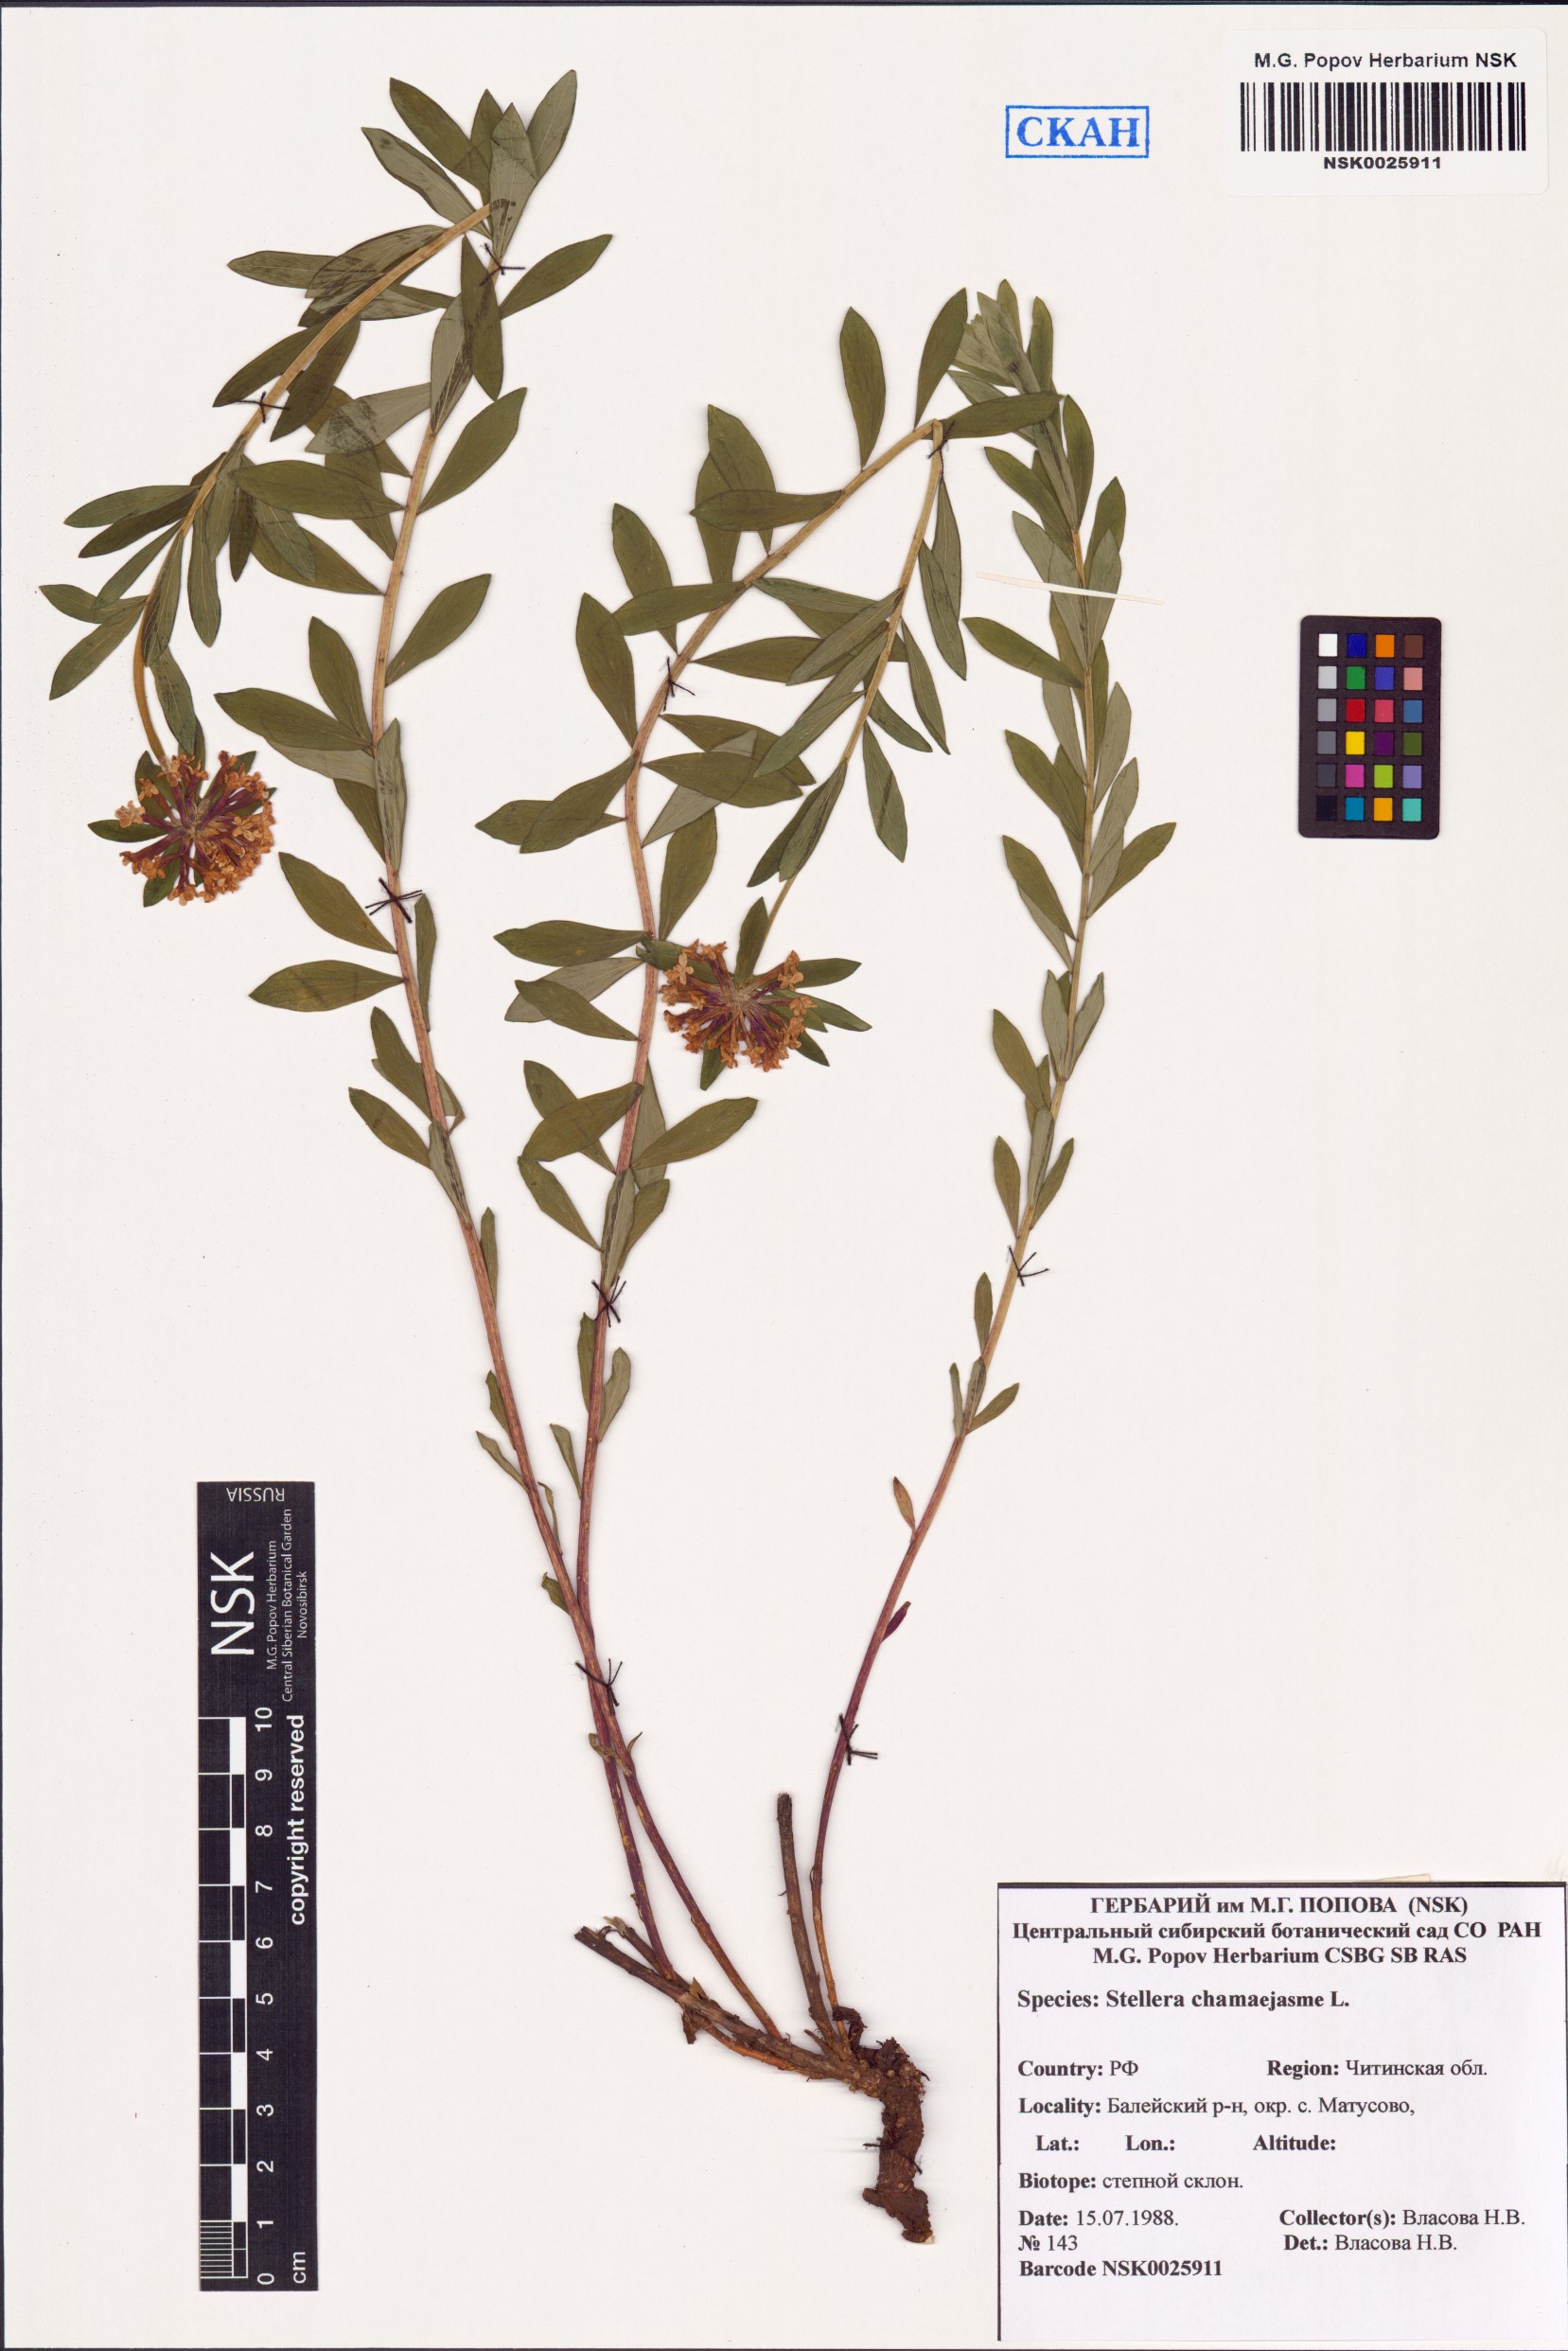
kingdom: Plantae
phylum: Tracheophyta
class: Magnoliopsida
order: Malvales
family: Thymelaeaceae
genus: Stellera
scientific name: Stellera chamaejasme
